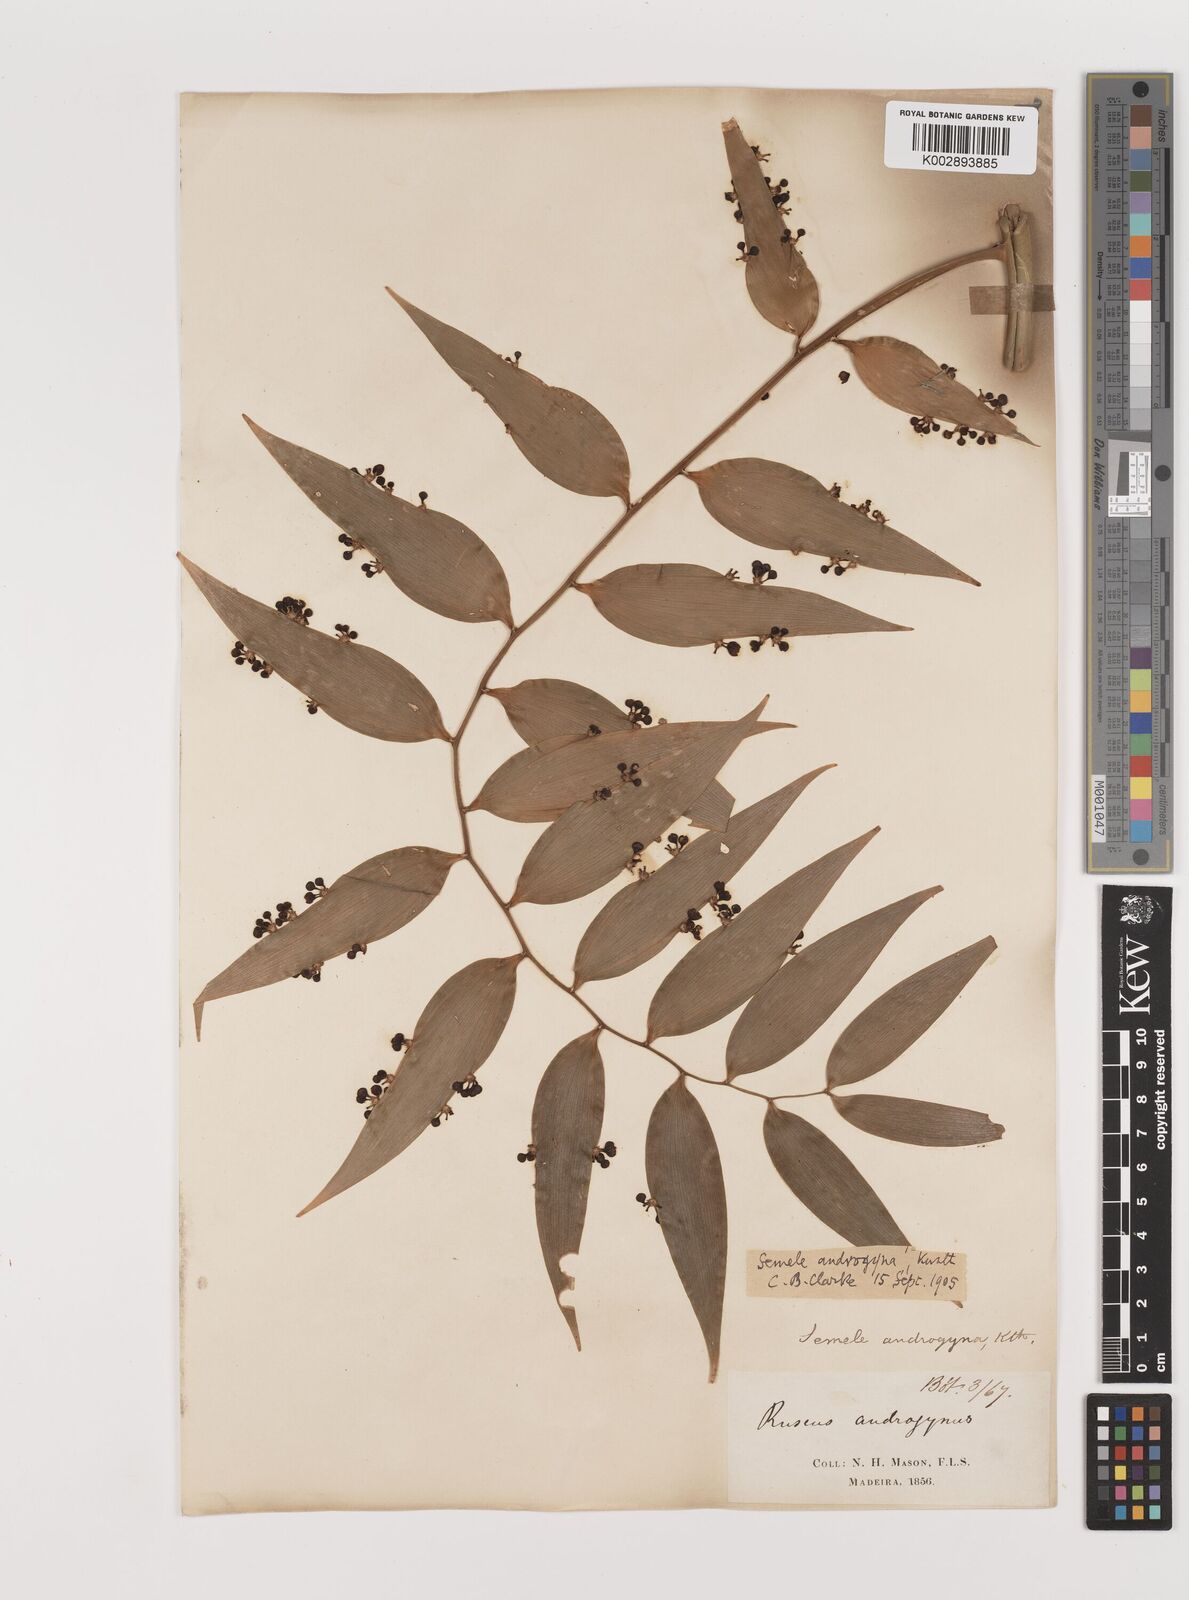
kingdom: Plantae
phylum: Tracheophyta
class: Liliopsida
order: Asparagales
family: Asparagaceae
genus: Semele
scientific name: Semele androgyna
